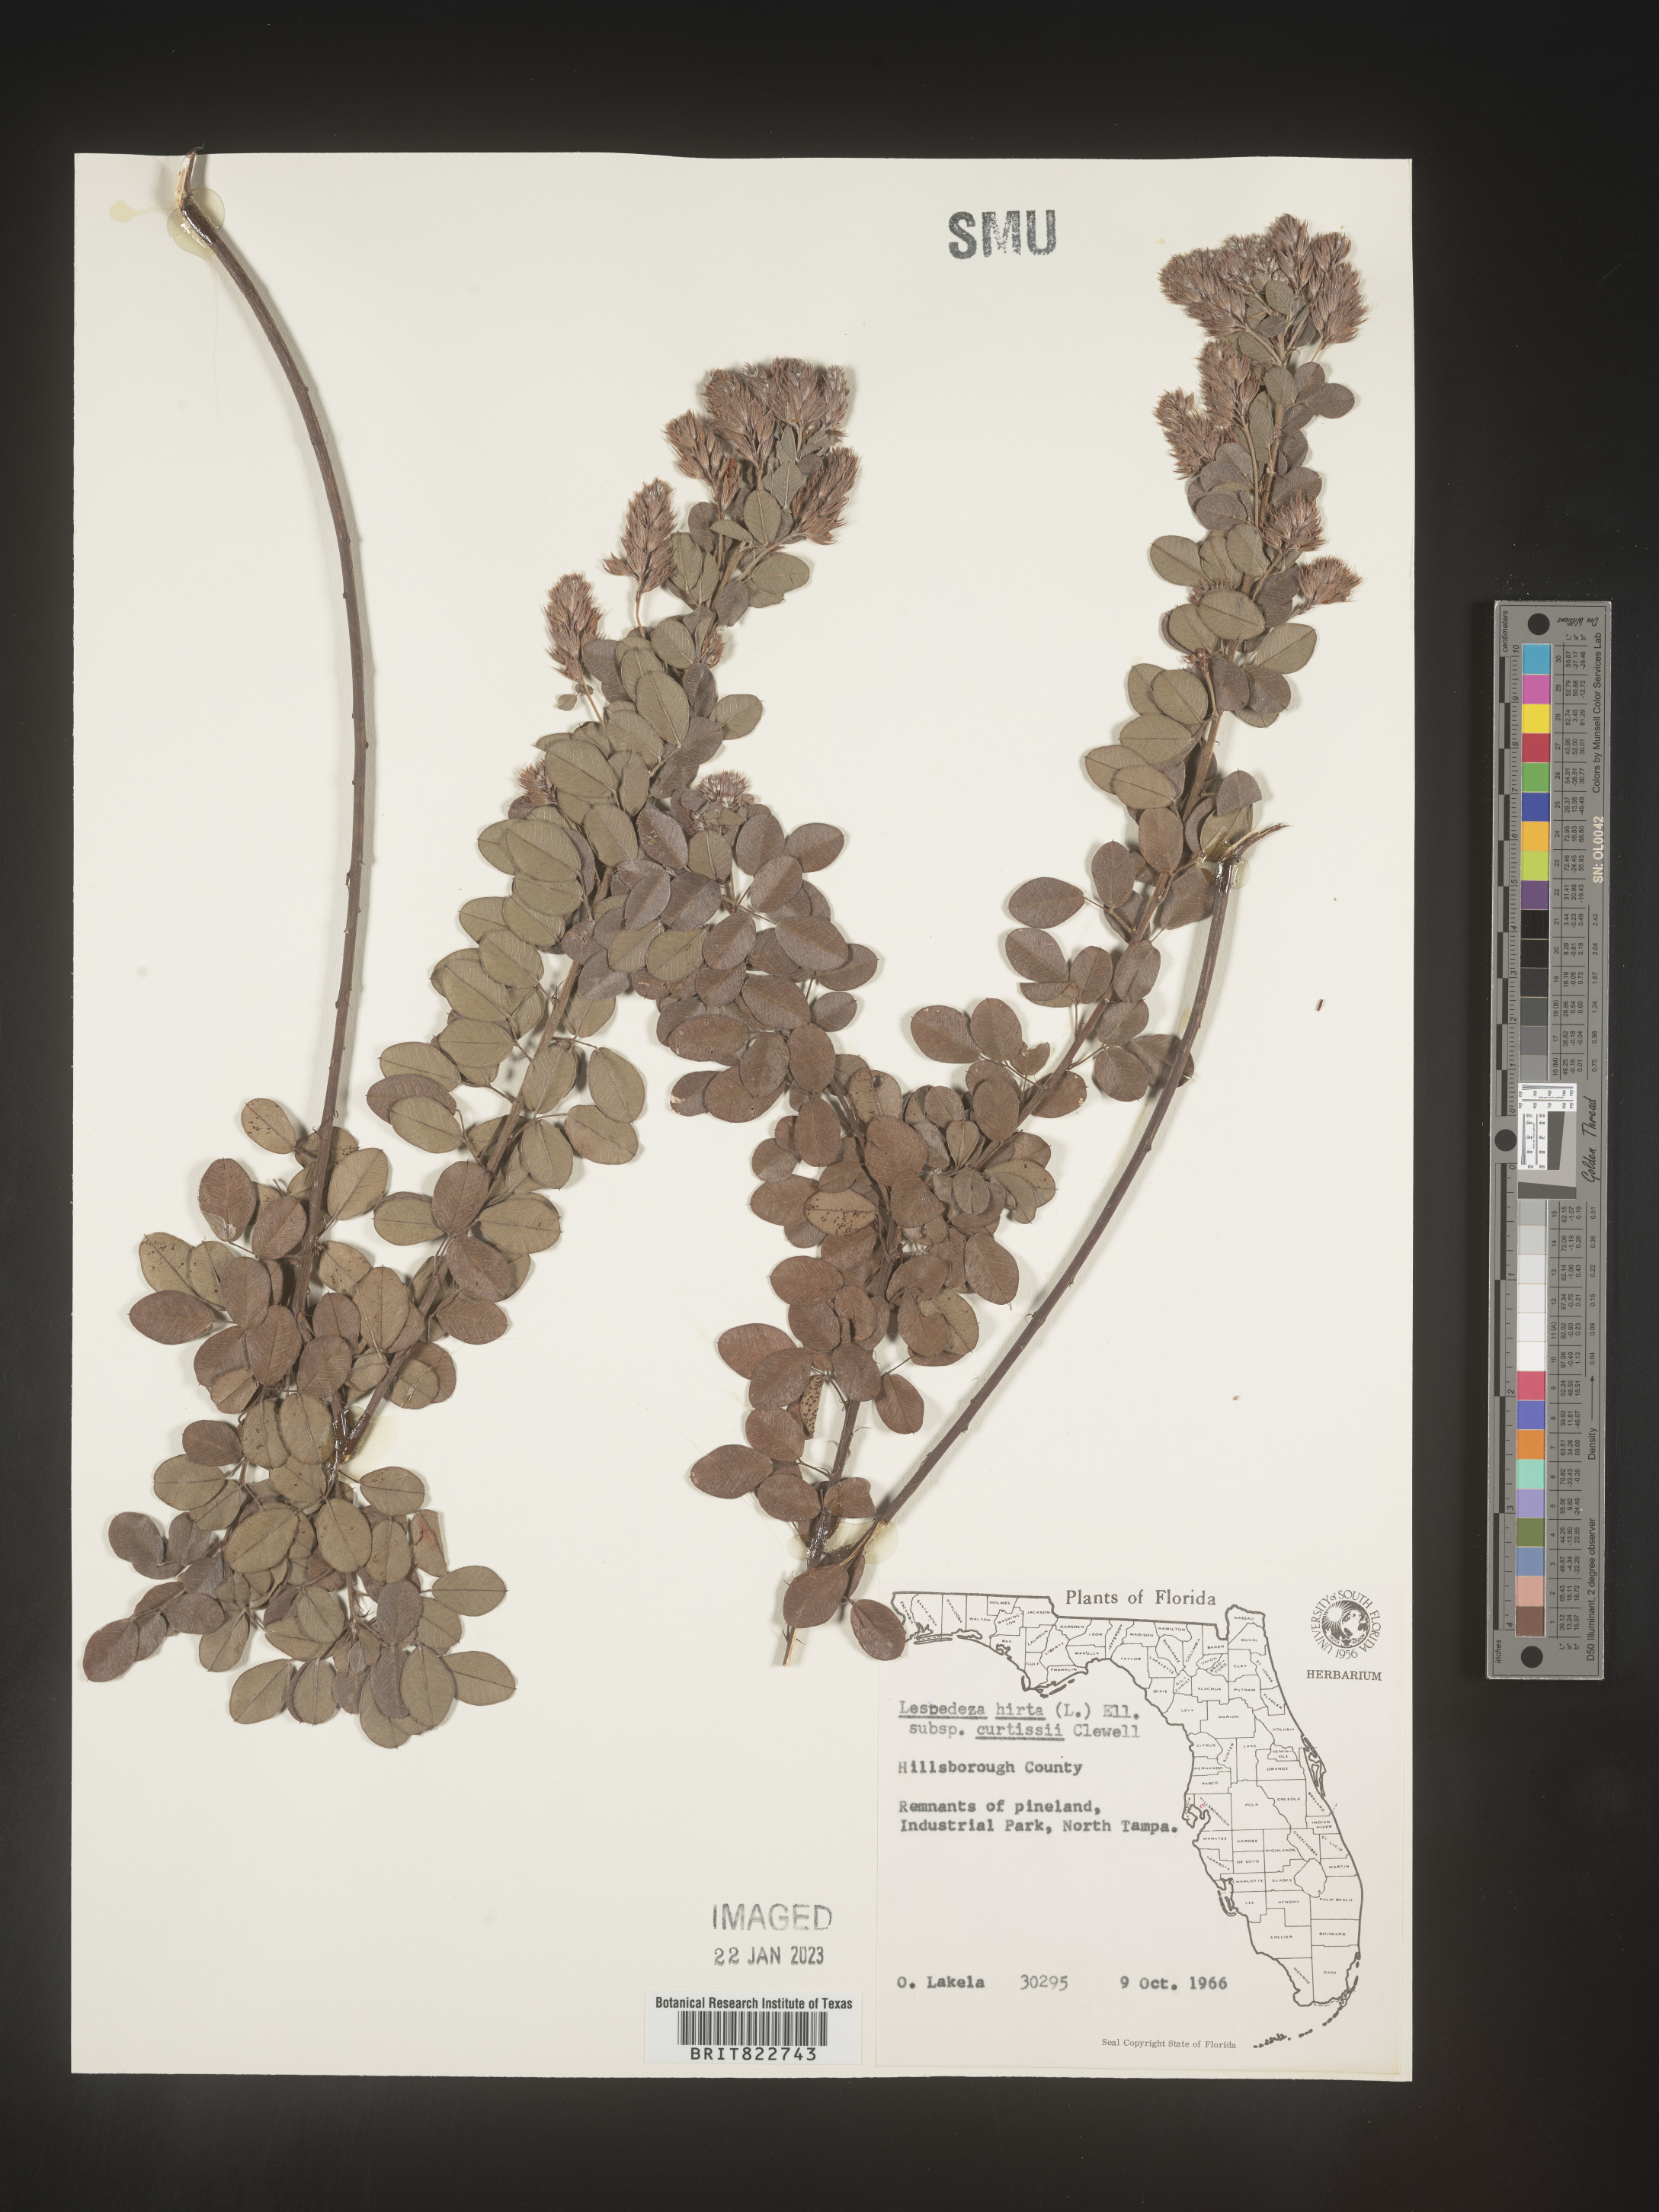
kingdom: Plantae
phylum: Tracheophyta
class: Magnoliopsida
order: Fabales
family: Fabaceae
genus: Lespedeza
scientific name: Lespedeza hirta
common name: Hairy lespedeza
